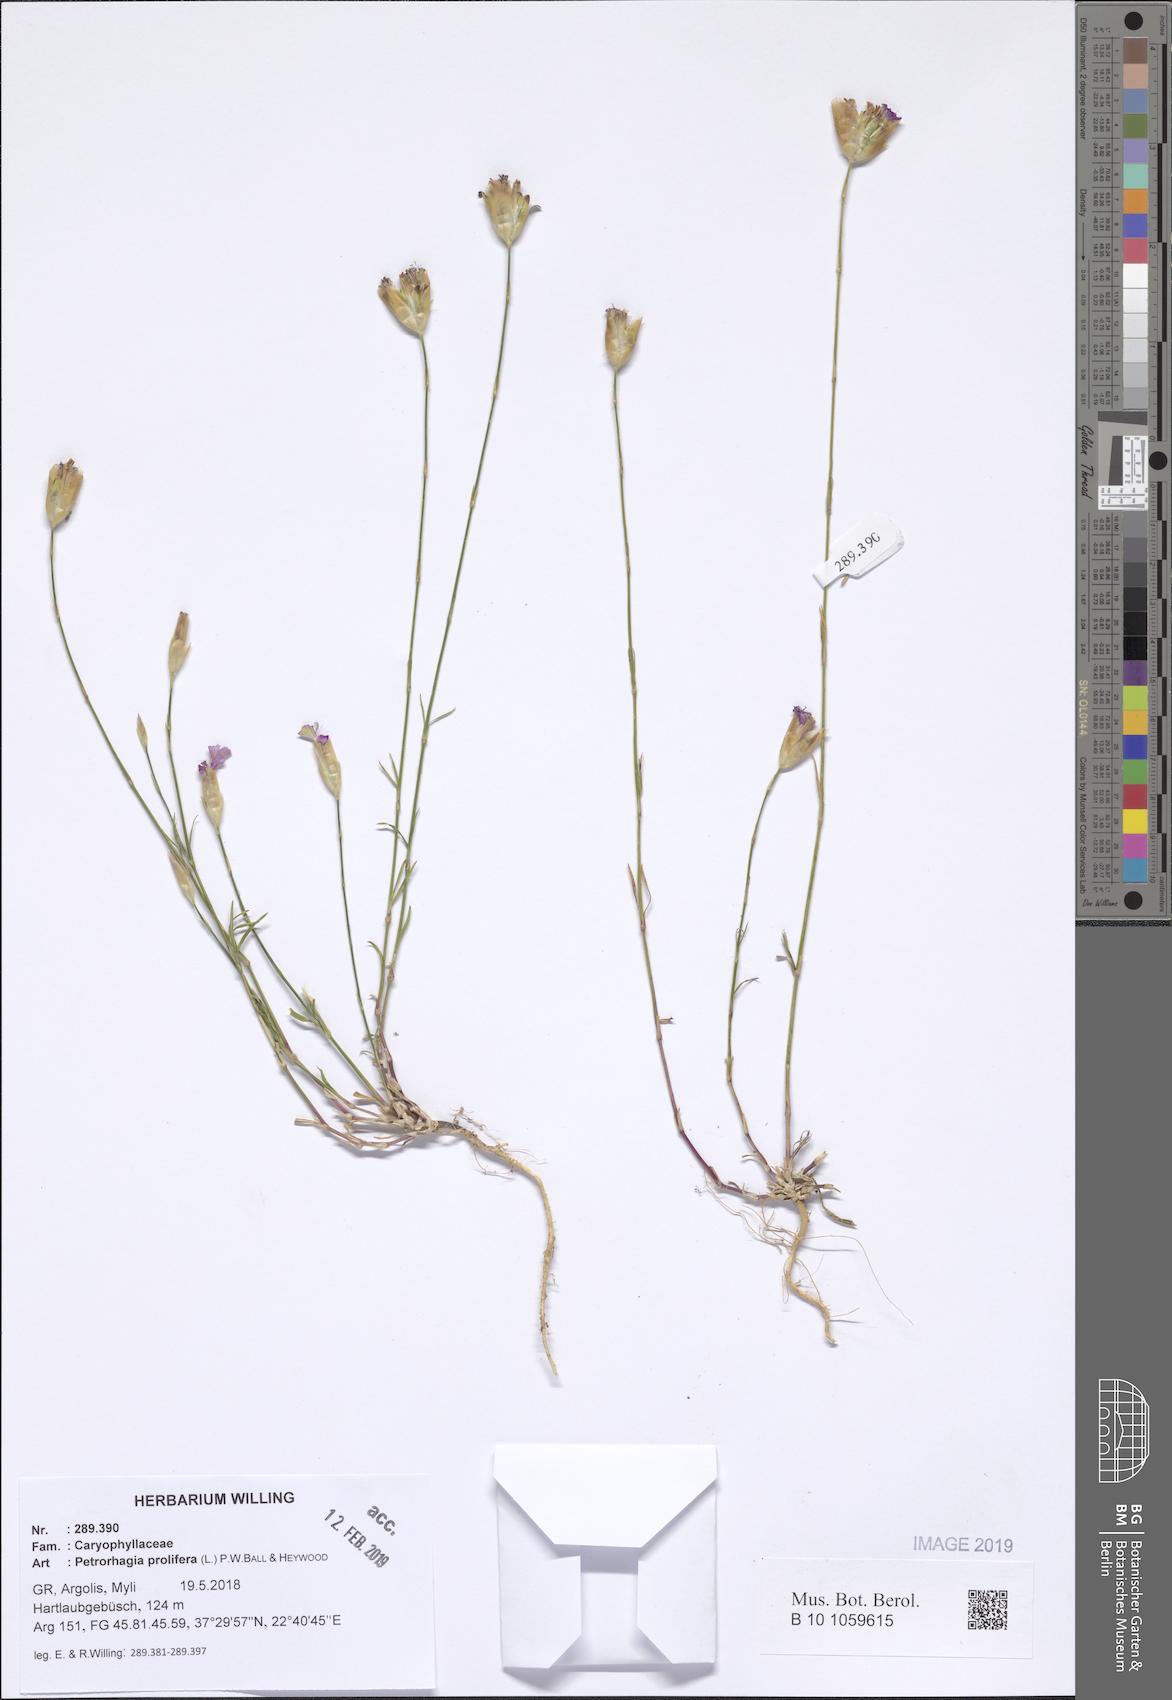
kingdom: Plantae
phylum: Tracheophyta
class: Magnoliopsida
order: Caryophyllales
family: Caryophyllaceae
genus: Petrorhagia
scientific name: Petrorhagia prolifera
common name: Proliferous pink
